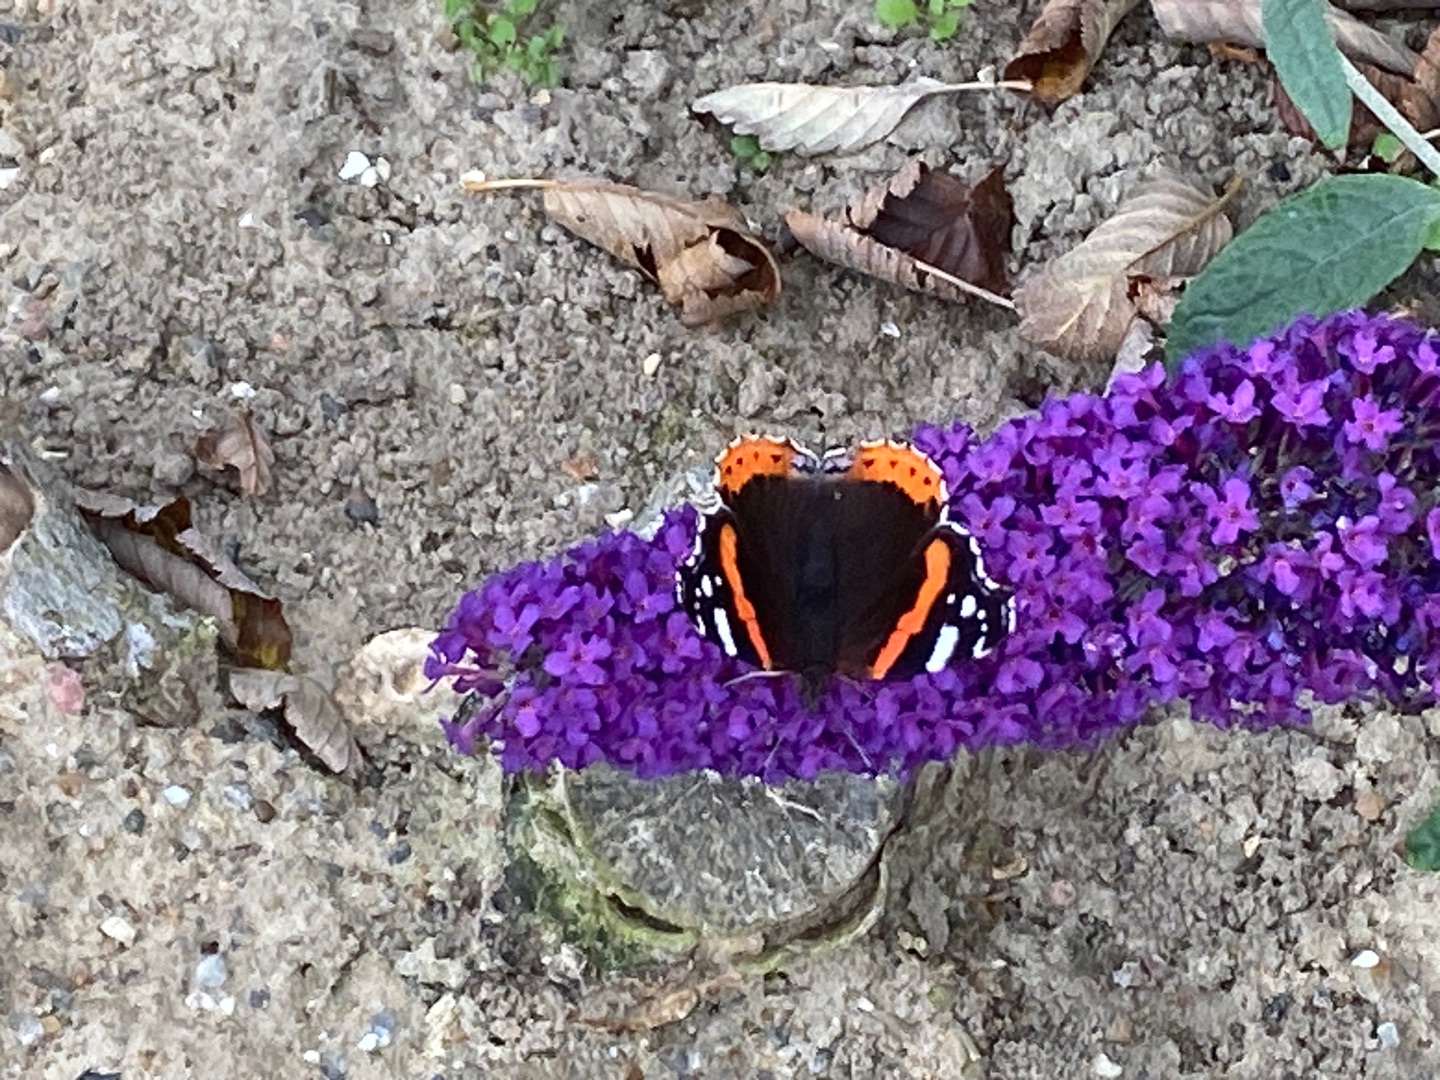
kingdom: Animalia
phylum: Arthropoda
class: Insecta
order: Lepidoptera
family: Nymphalidae
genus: Vanessa
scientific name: Vanessa atalanta
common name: Admiral
